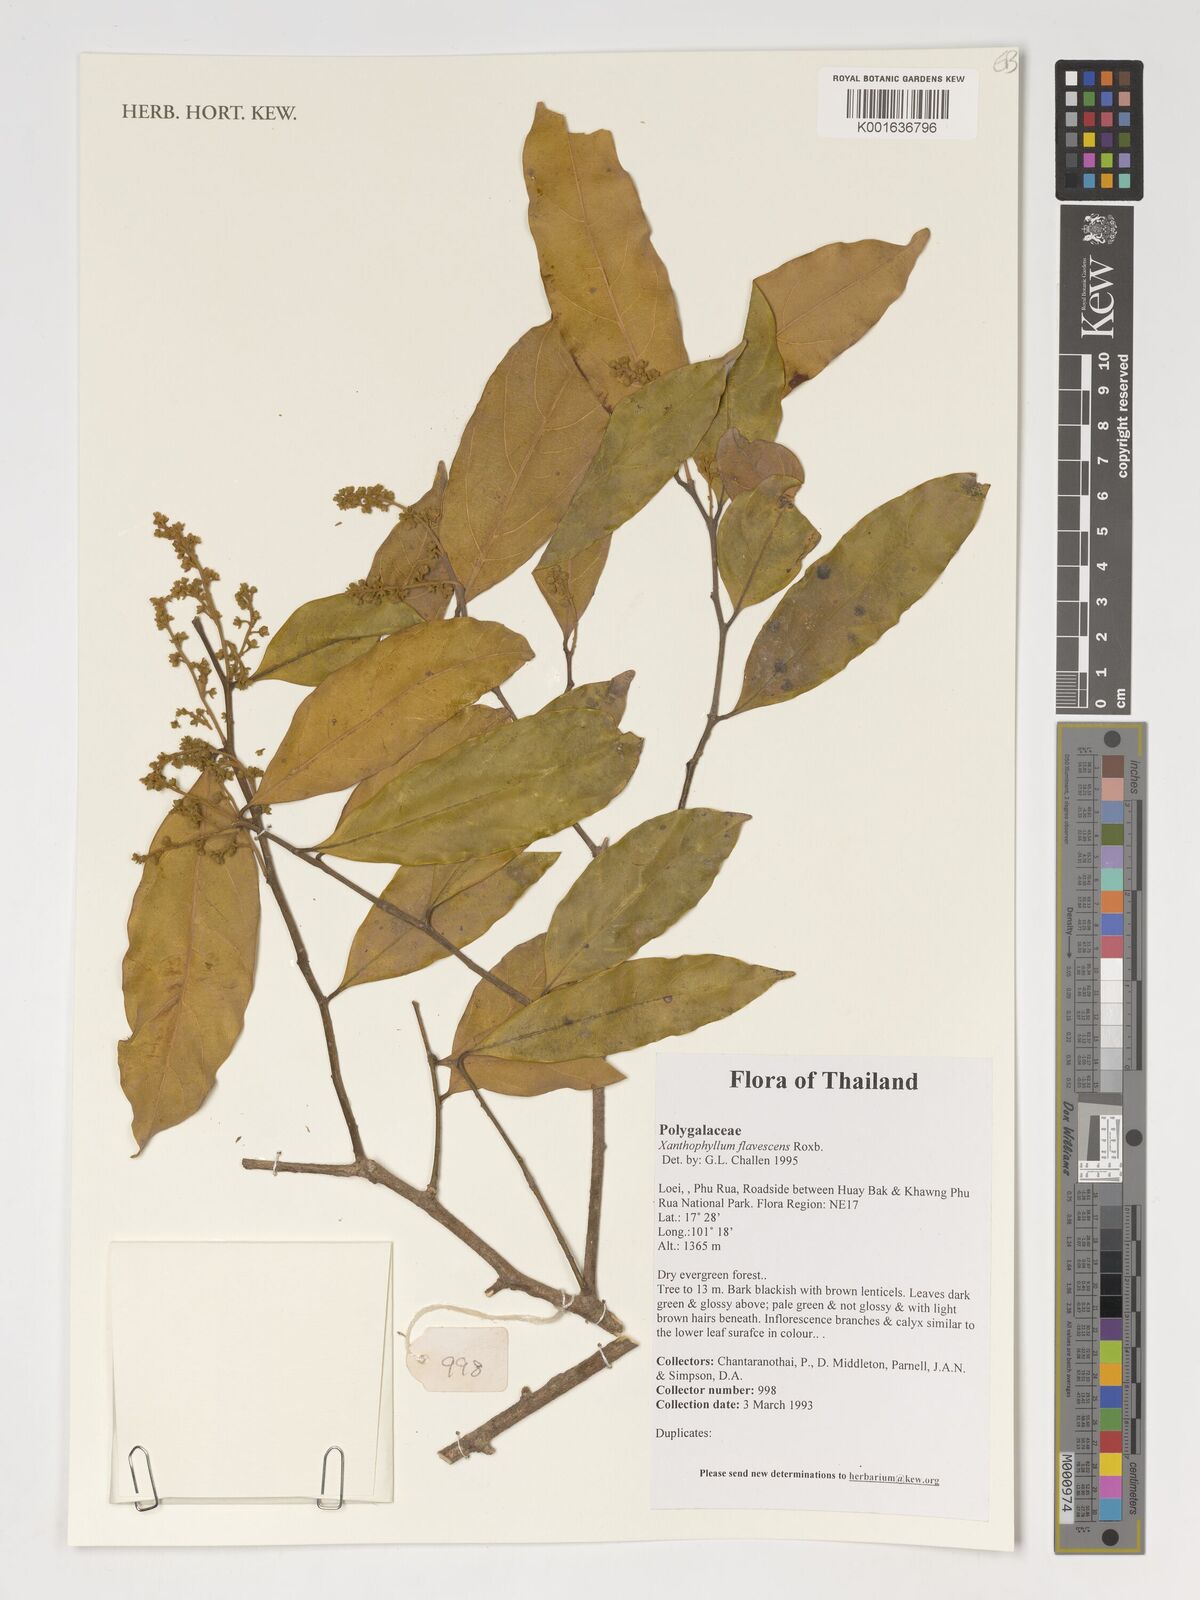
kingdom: Plantae
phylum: Tracheophyta
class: Magnoliopsida
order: Fabales
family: Polygalaceae
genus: Xanthophyllum
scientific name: Xanthophyllum flavescens
